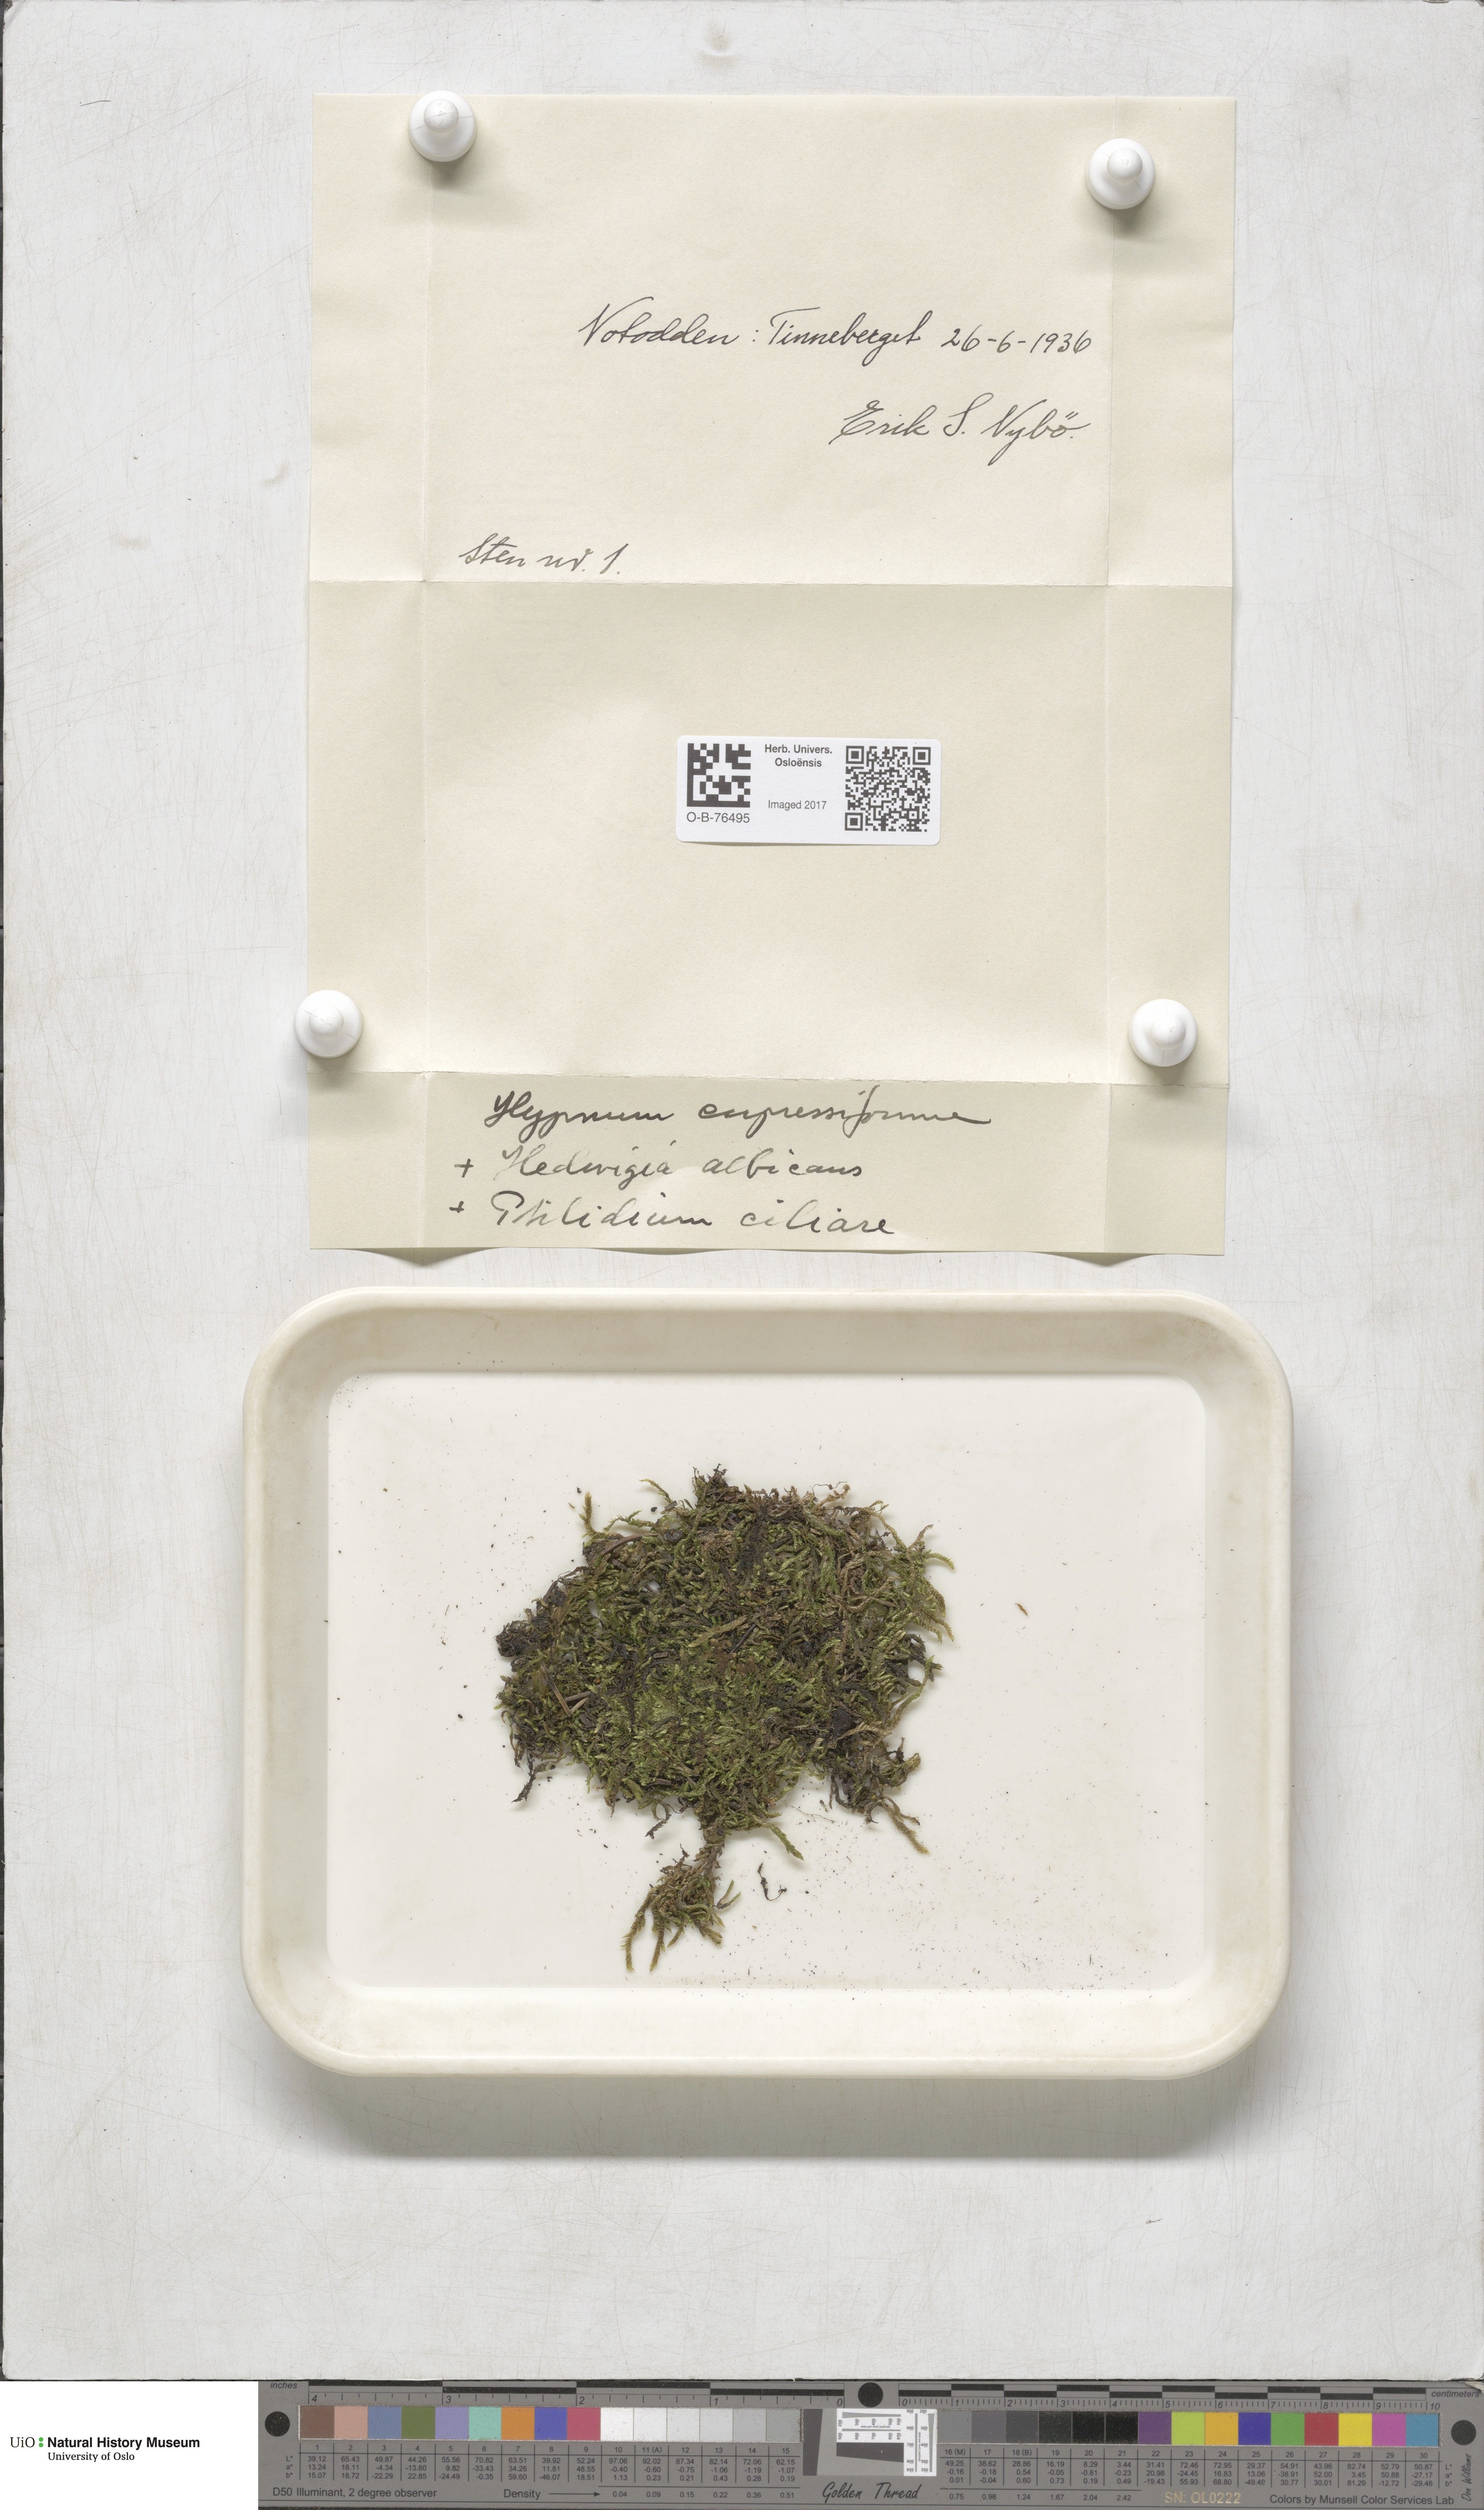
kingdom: Plantae
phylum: Bryophyta
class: Bryopsida
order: Hypnales
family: Hypnaceae
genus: Hypnum
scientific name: Hypnum cupressiforme
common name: Cypress-leaved plait-moss
